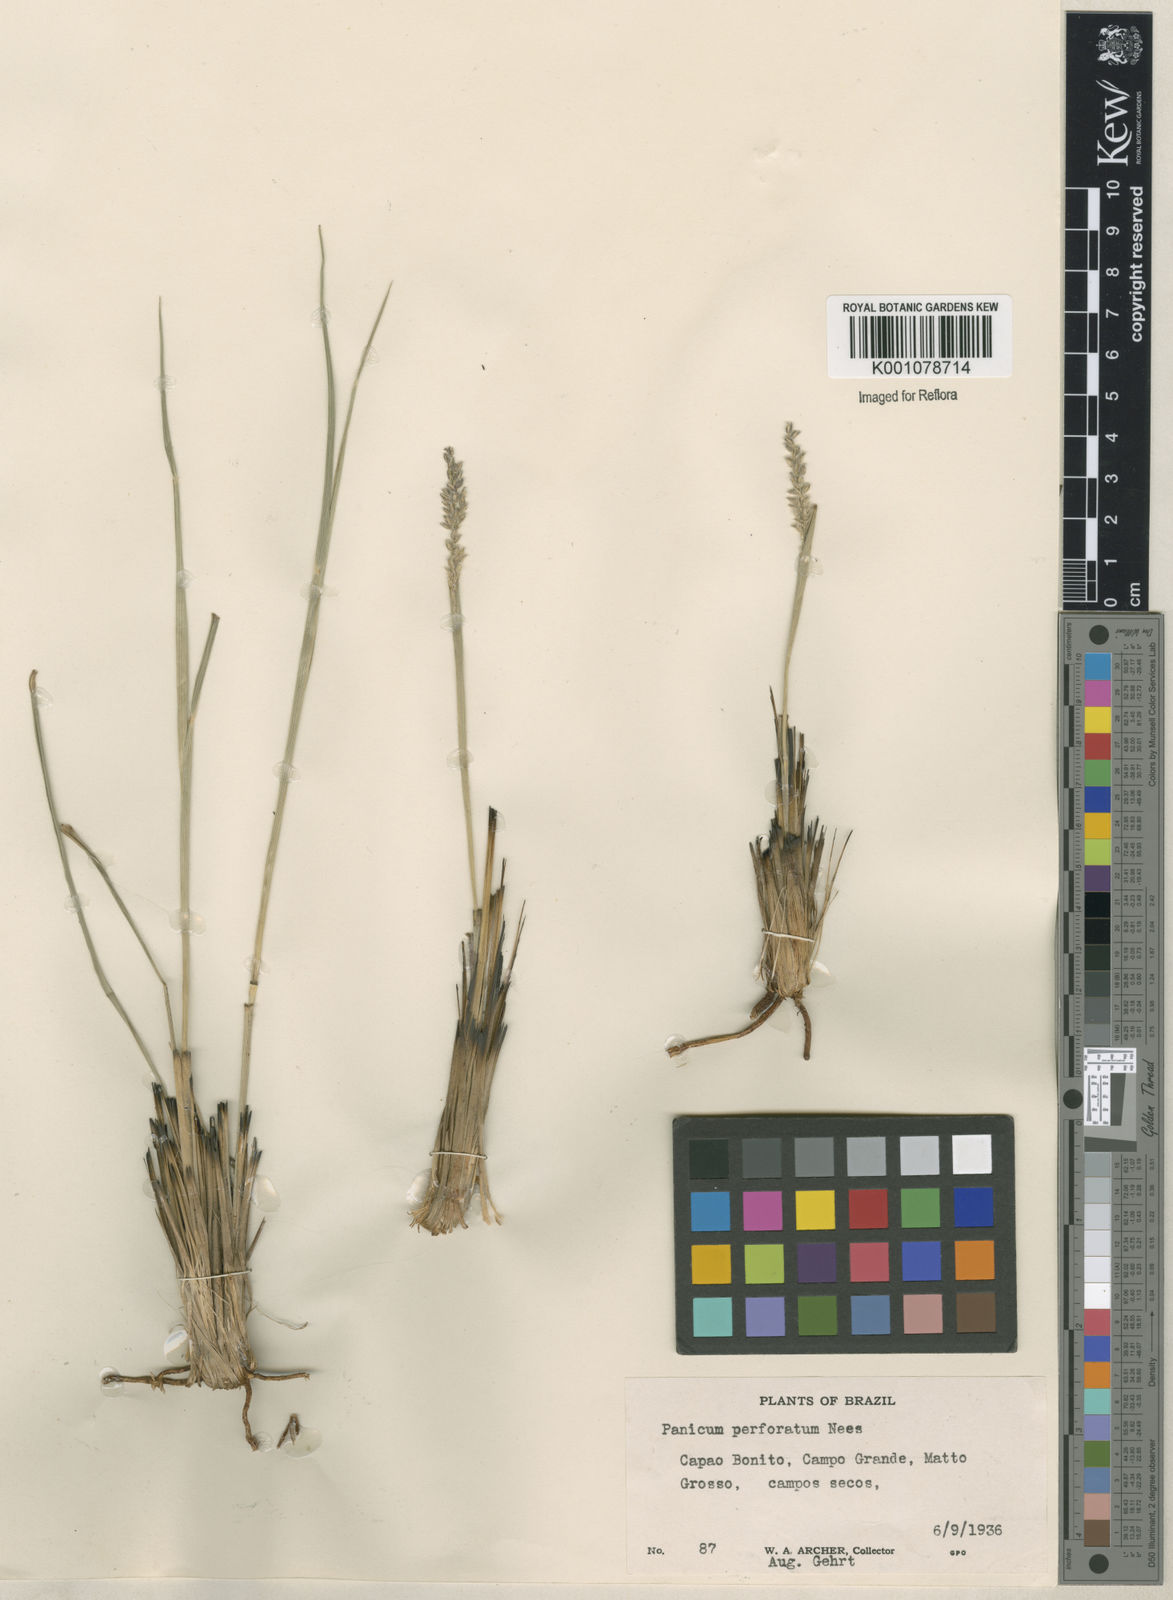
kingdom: Plantae
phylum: Tracheophyta
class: Liliopsida
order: Poales
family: Poaceae
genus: Anthaenantiopsis
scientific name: Anthaenantiopsis perforata
